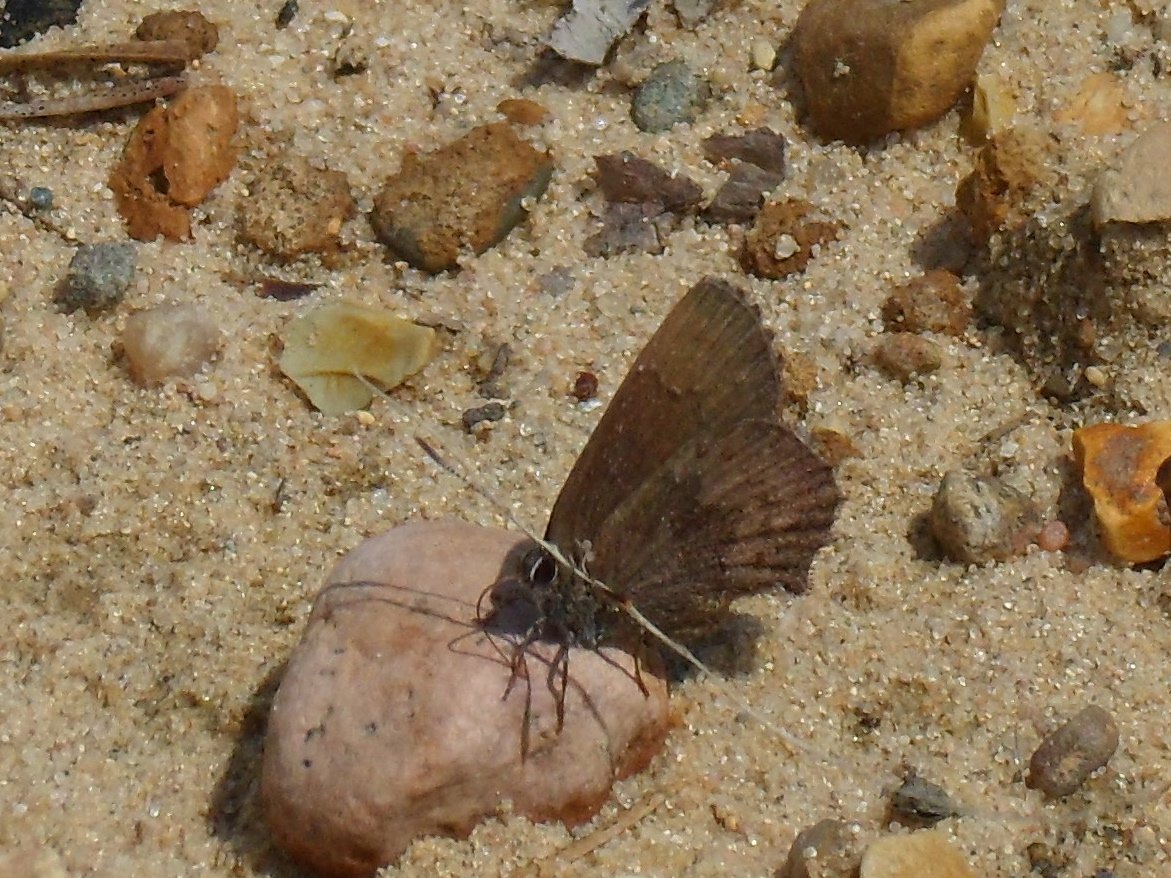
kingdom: Animalia
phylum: Arthropoda
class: Insecta
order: Lepidoptera
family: Lycaenidae
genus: Incisalia
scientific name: Incisalia irioides
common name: Brown Elfin
